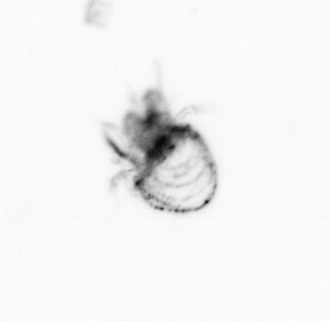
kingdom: Animalia
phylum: Arthropoda
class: Copepoda
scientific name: Copepoda
